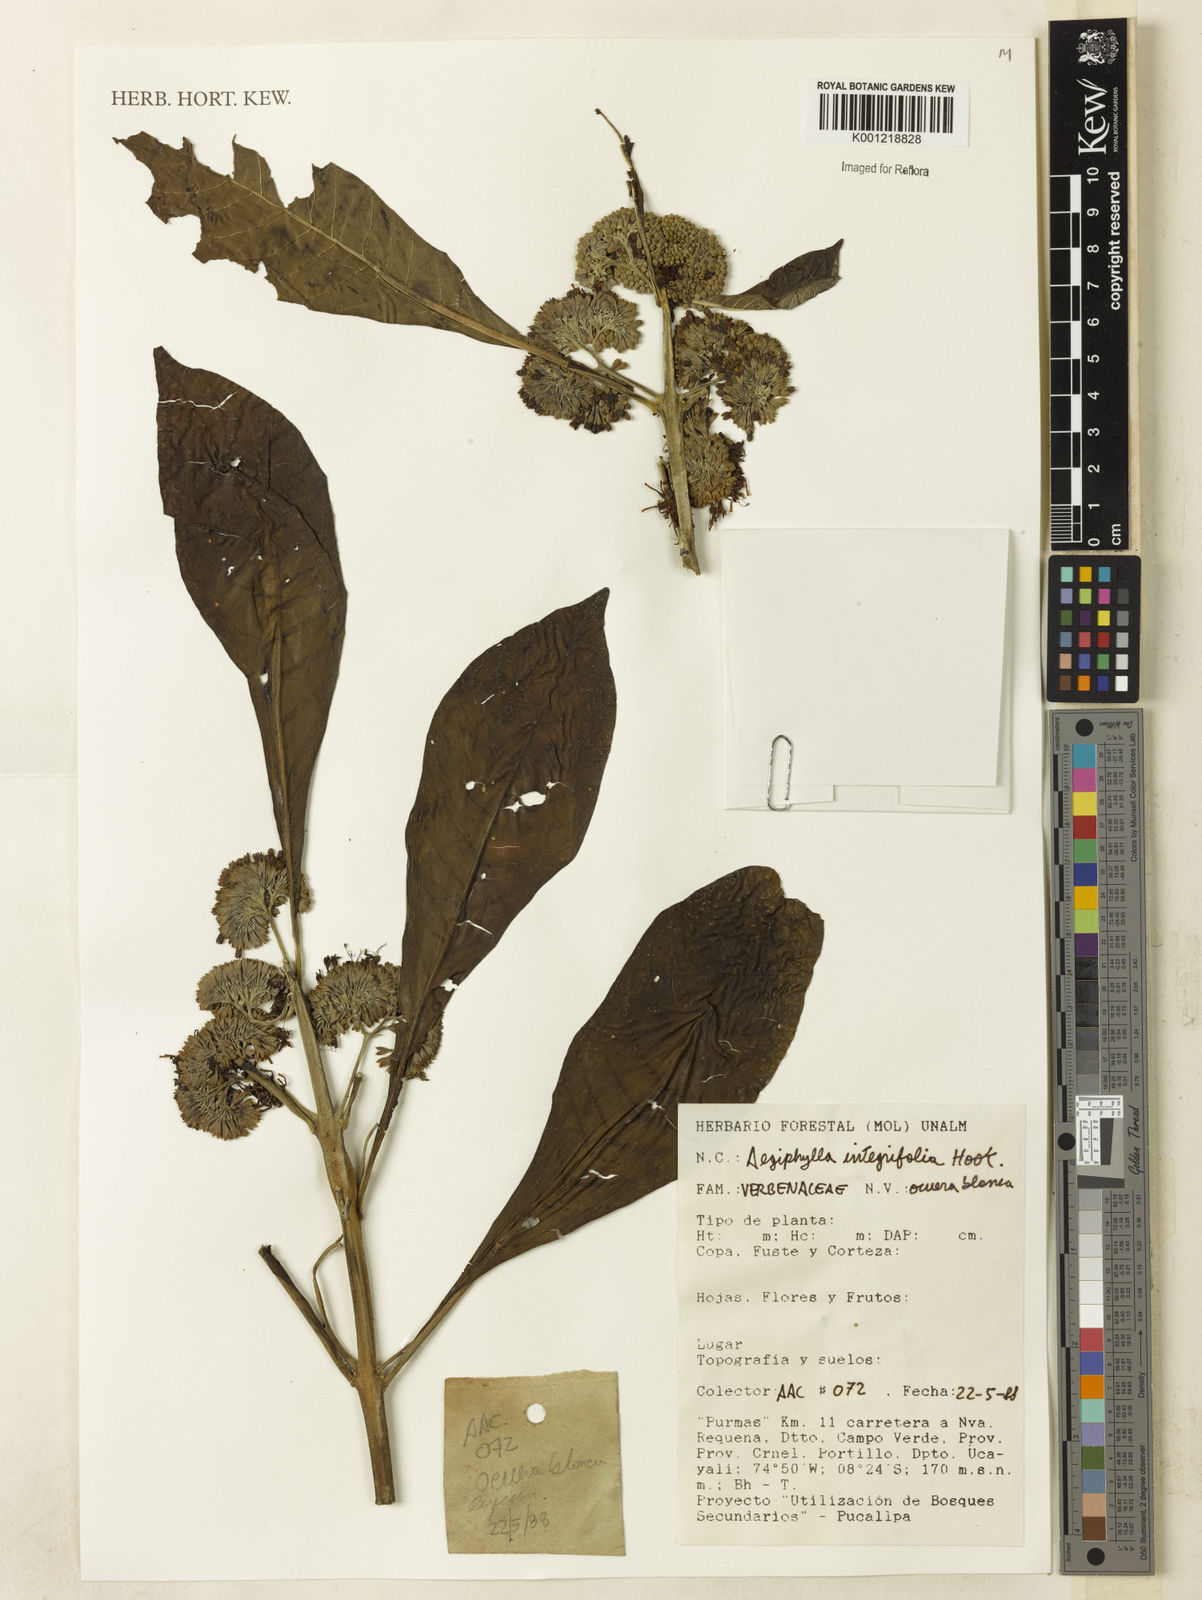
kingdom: Plantae
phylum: Tracheophyta
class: Magnoliopsida
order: Lamiales
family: Lamiaceae
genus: Aegiphila
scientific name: Aegiphila
